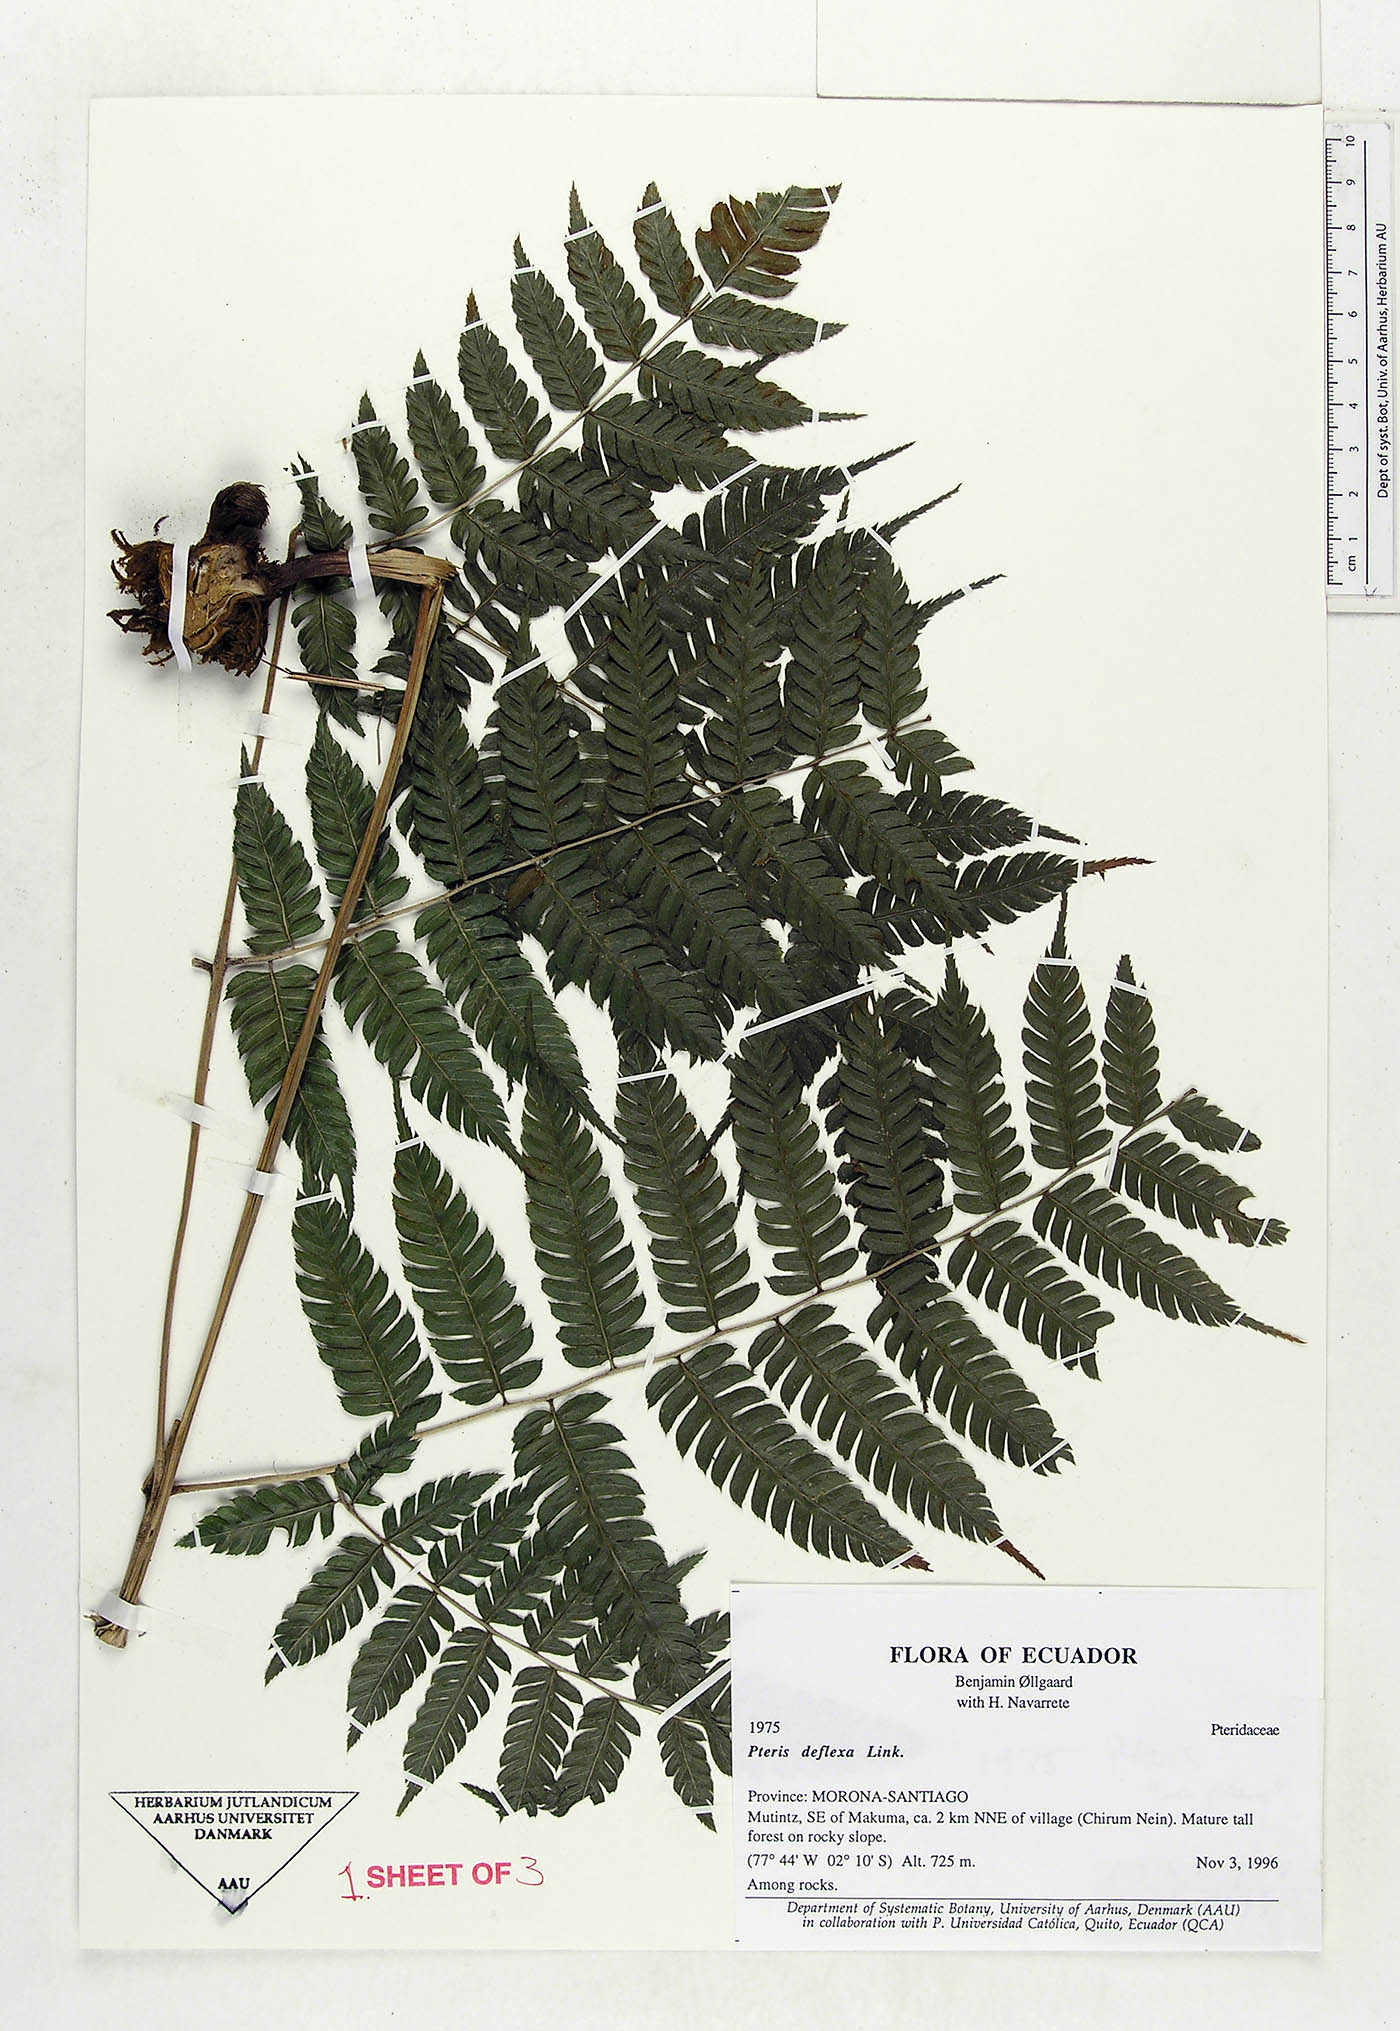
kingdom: Plantae
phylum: Tracheophyta
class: Polypodiopsida
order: Polypodiales
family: Pteridaceae
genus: Pteris
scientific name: Pteris deflexa
